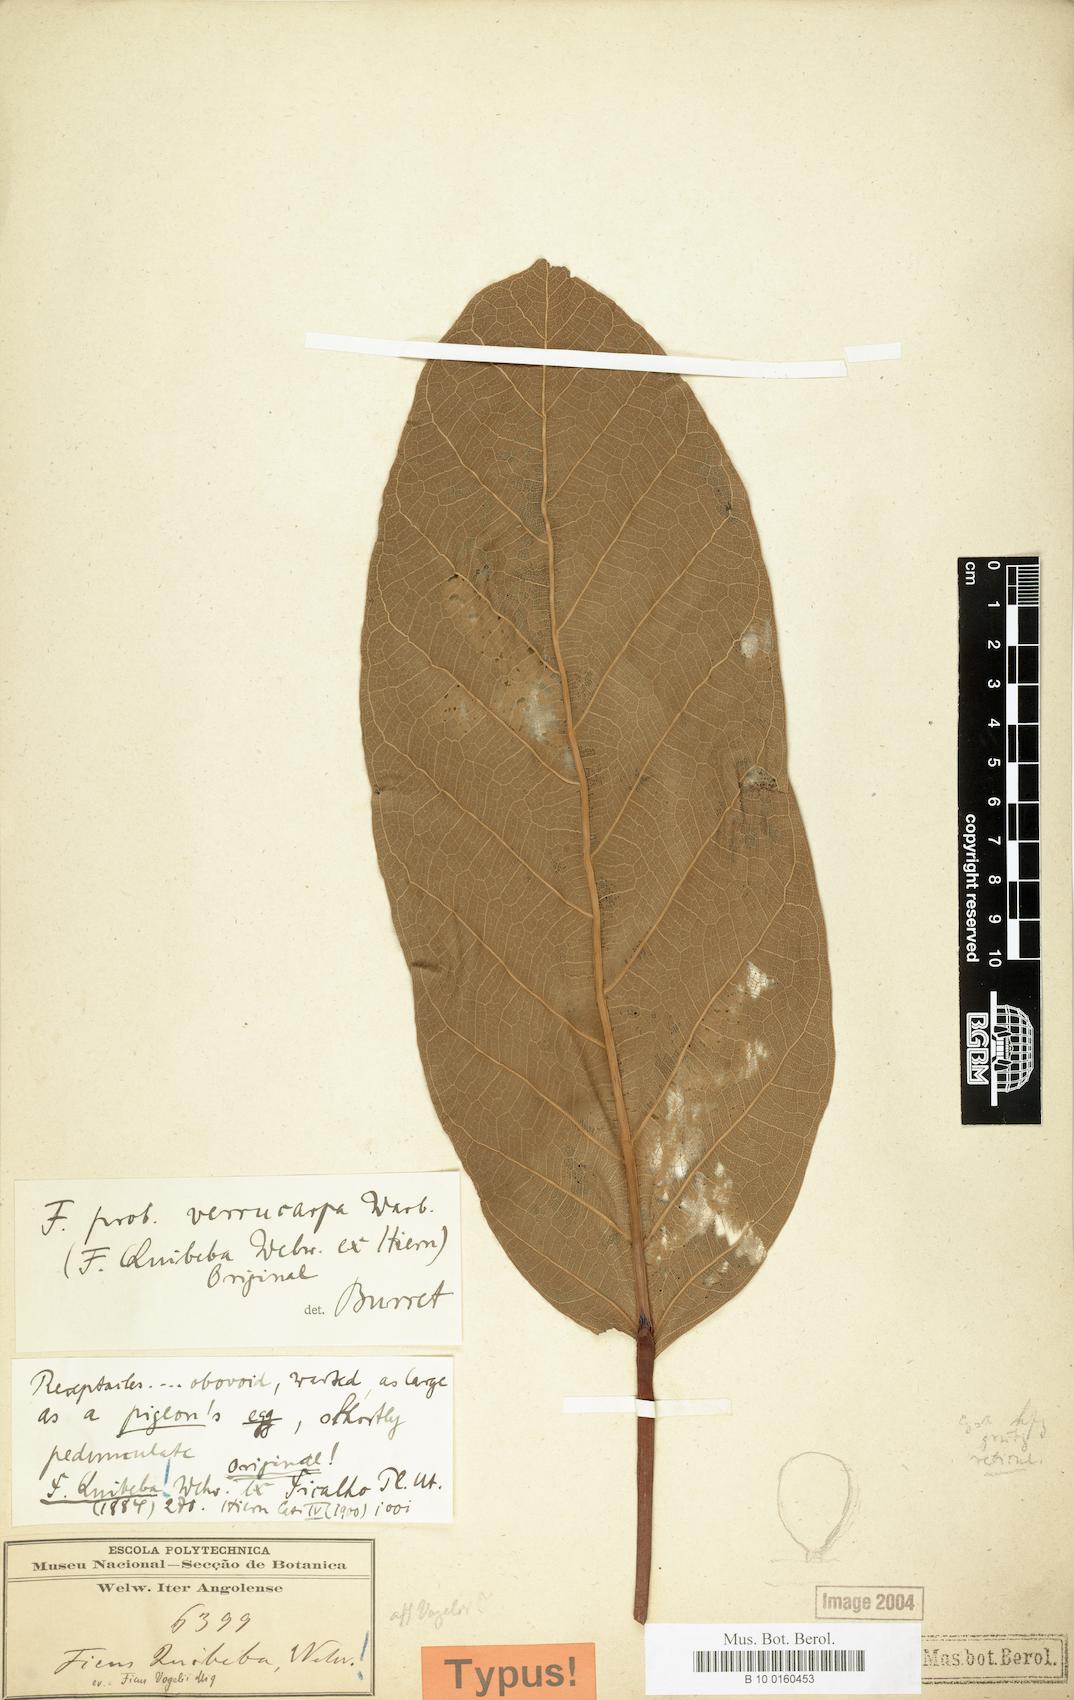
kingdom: Plantae
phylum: Tracheophyta
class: Magnoliopsida
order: Rosales
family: Moraceae
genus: Ficus
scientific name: Ficus lutea
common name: Giant-leaved fig
